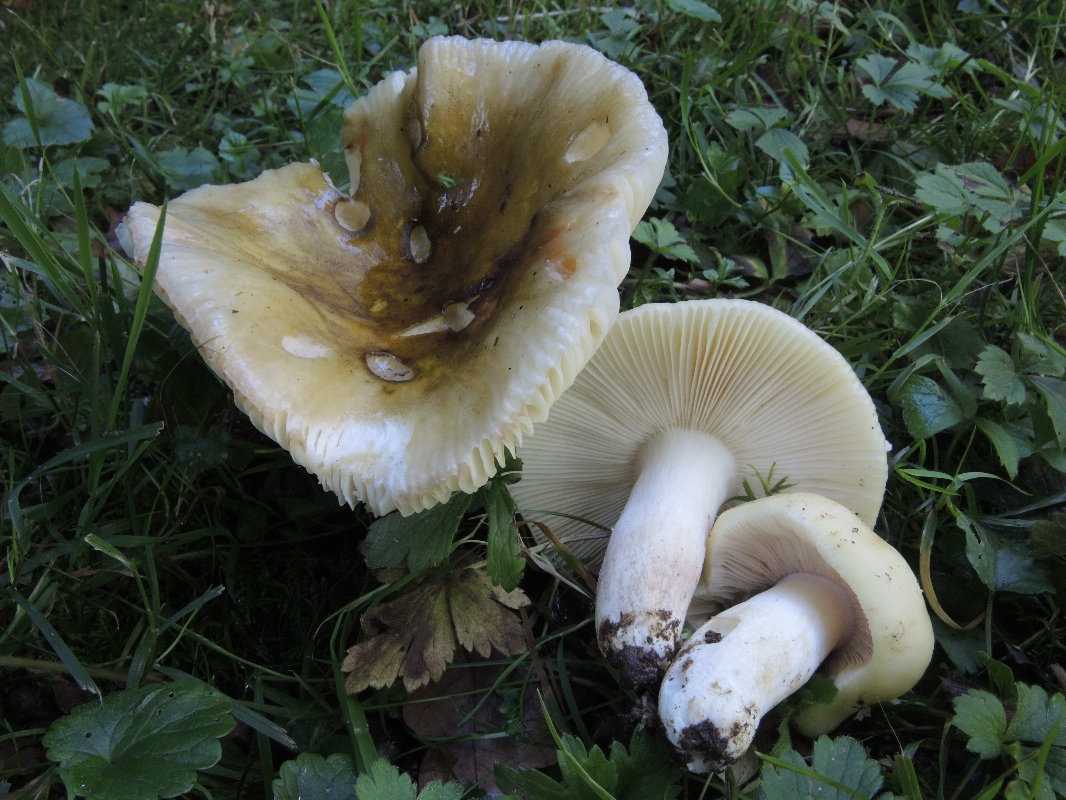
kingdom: Fungi
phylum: Basidiomycota
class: Agaricomycetes
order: Russulales
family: Russulaceae
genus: Russula
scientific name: Russula violeipes
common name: ferskengul skørhat
